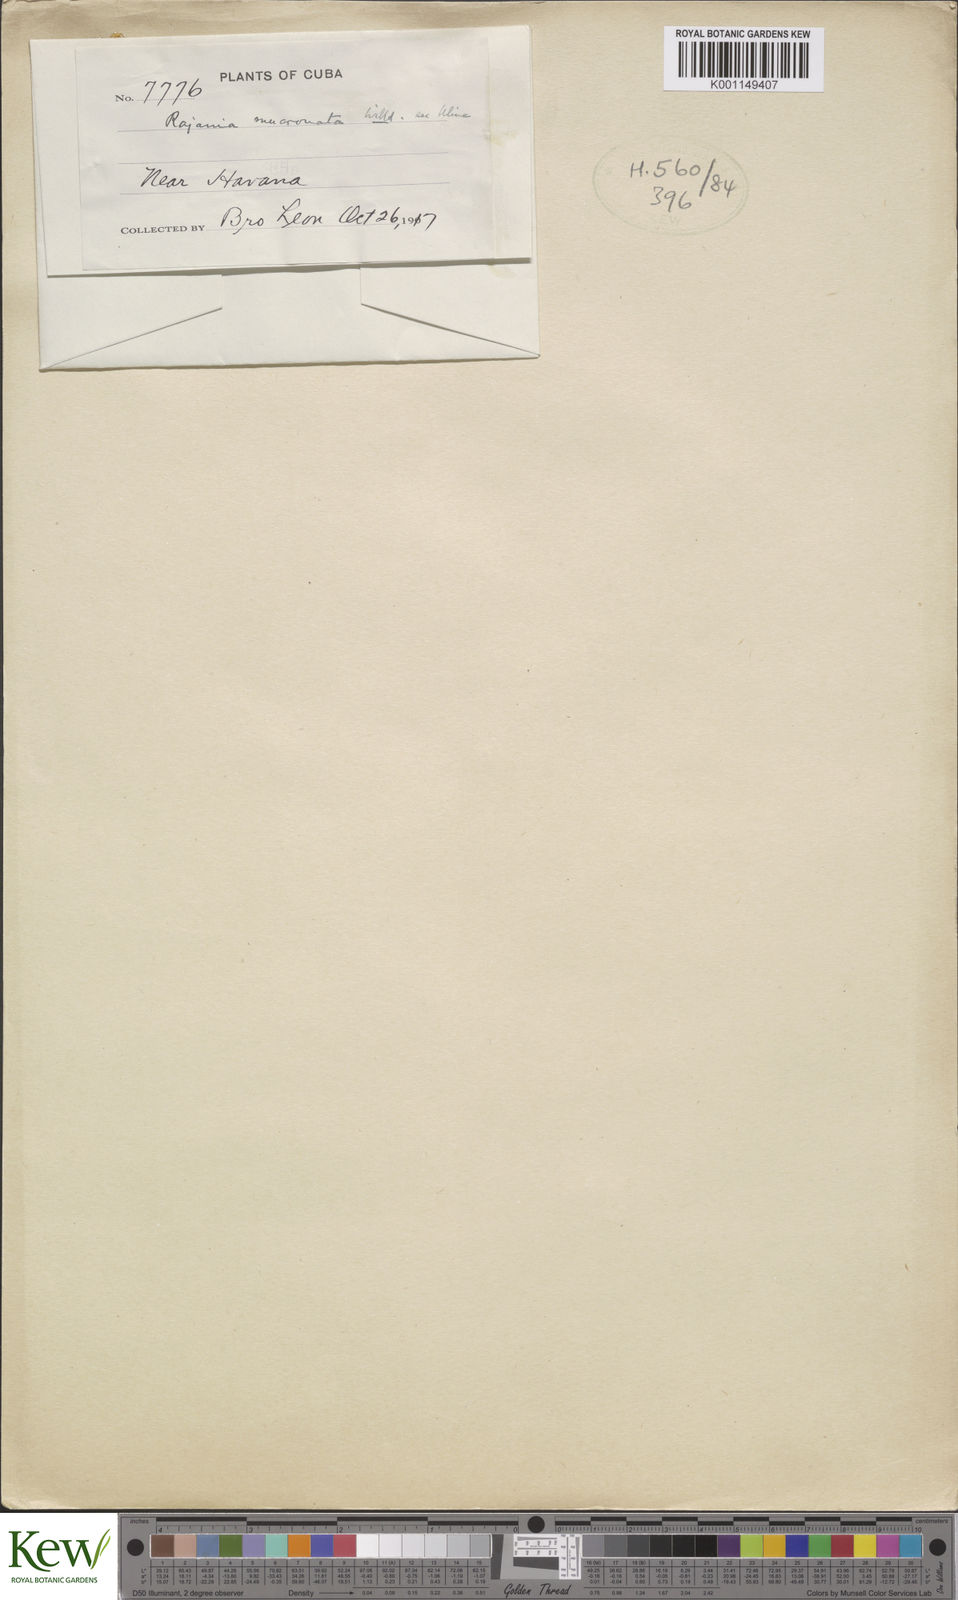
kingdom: Plantae
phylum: Tracheophyta
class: Liliopsida
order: Dioscoreales
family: Dioscoreaceae
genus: Dioscorea
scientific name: Dioscorea
